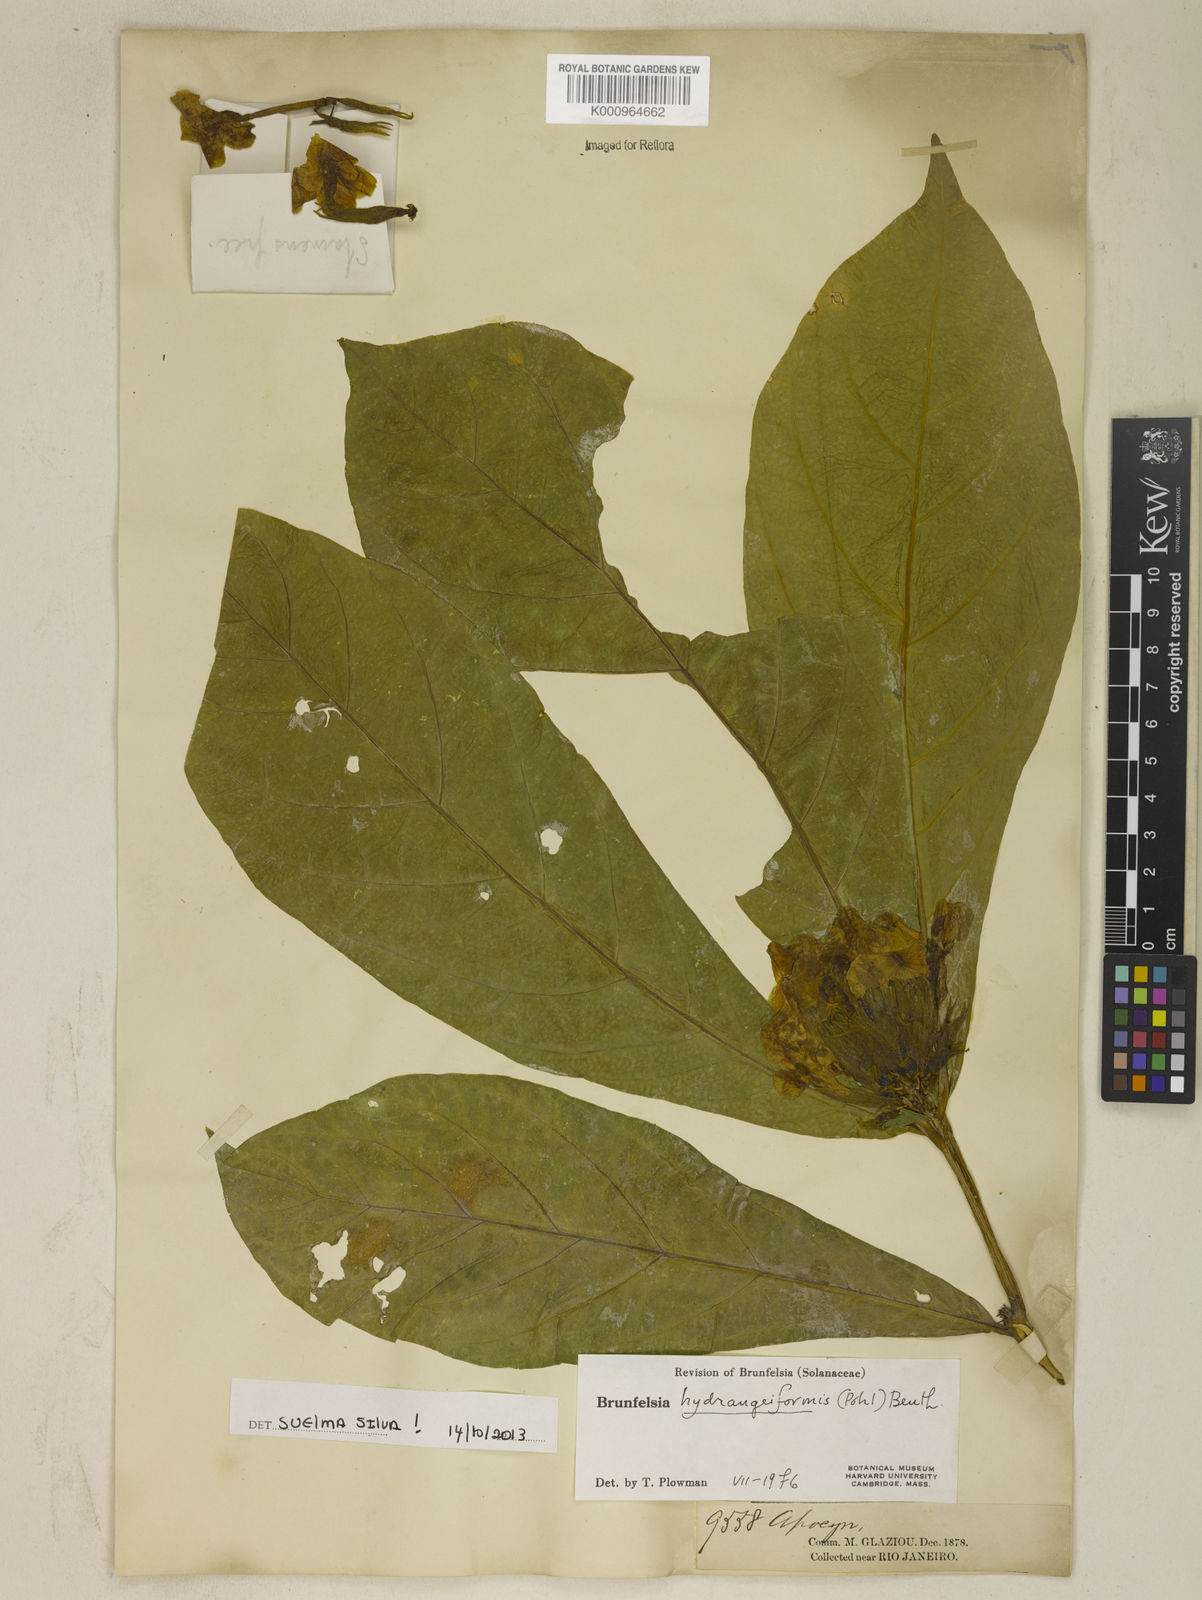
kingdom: Plantae
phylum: Tracheophyta
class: Magnoliopsida
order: Solanales
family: Solanaceae
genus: Brunfelsia
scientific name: Brunfelsia hydrangeiformis
